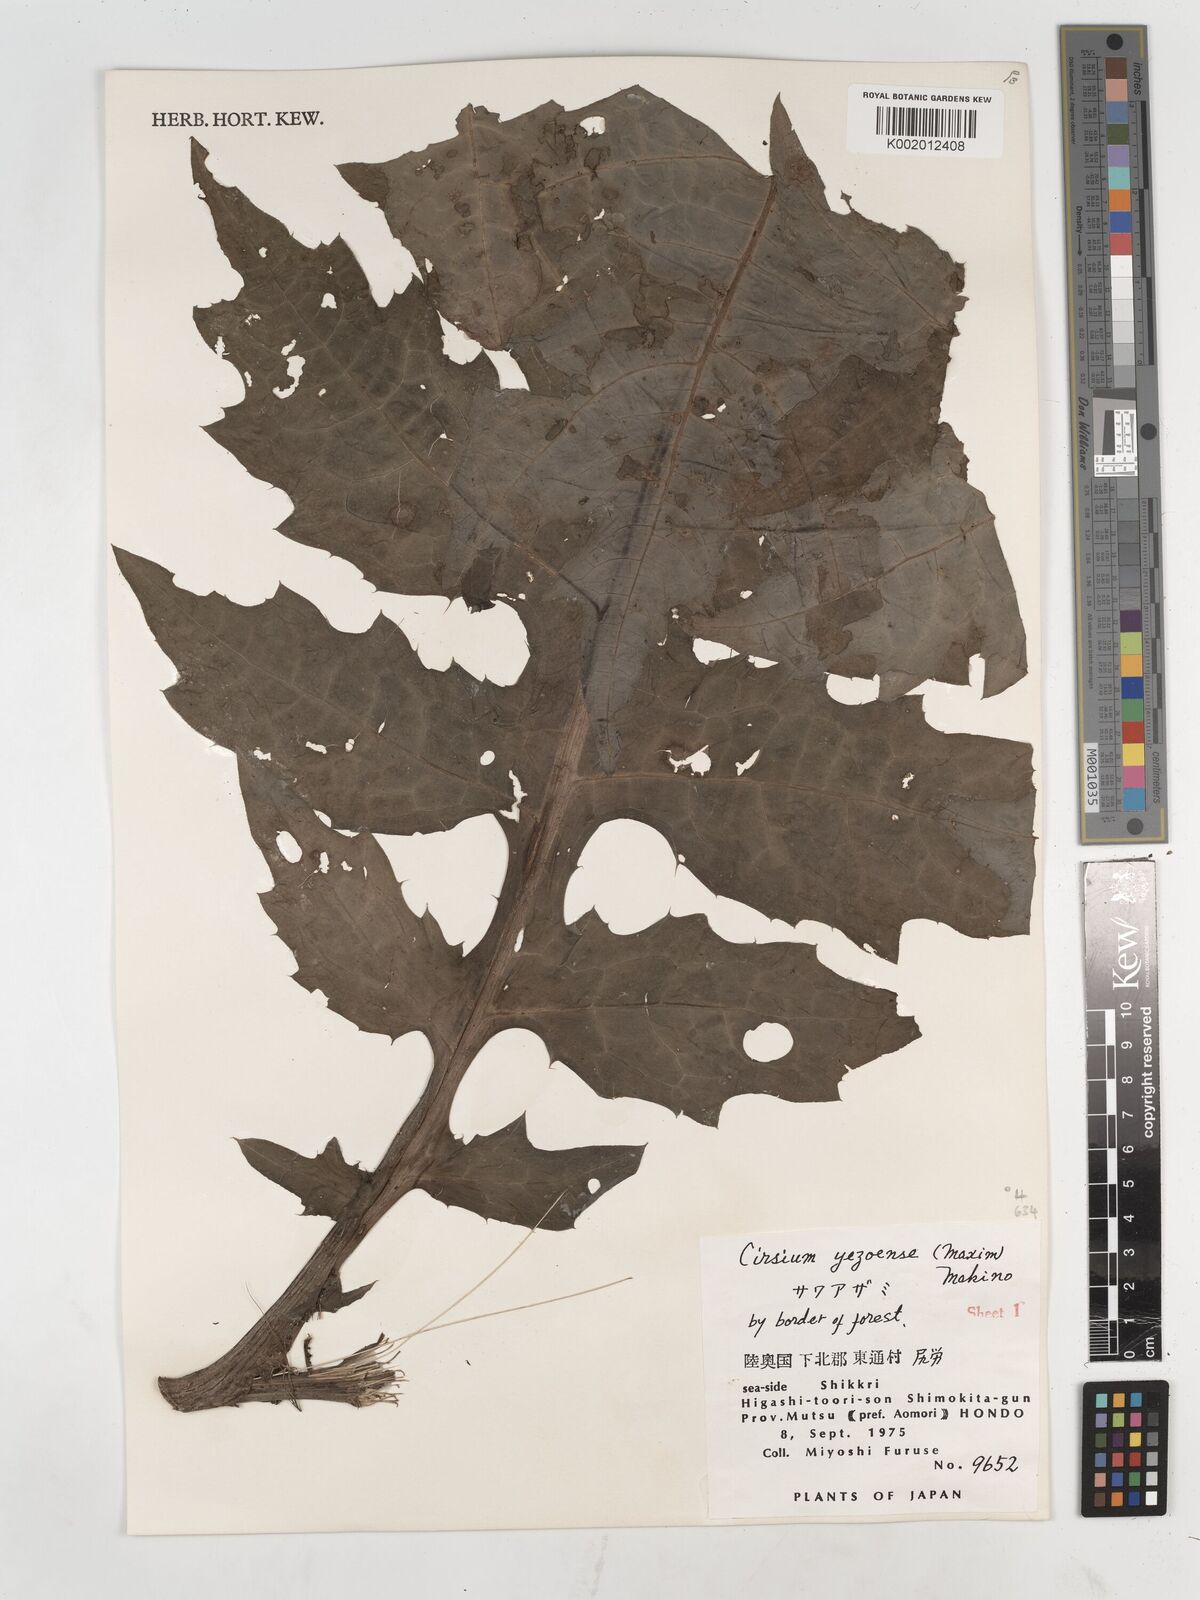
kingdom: Plantae
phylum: Tracheophyta
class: Magnoliopsida
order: Asterales
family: Asteraceae
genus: Cirsium
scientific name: Cirsium yezoense
